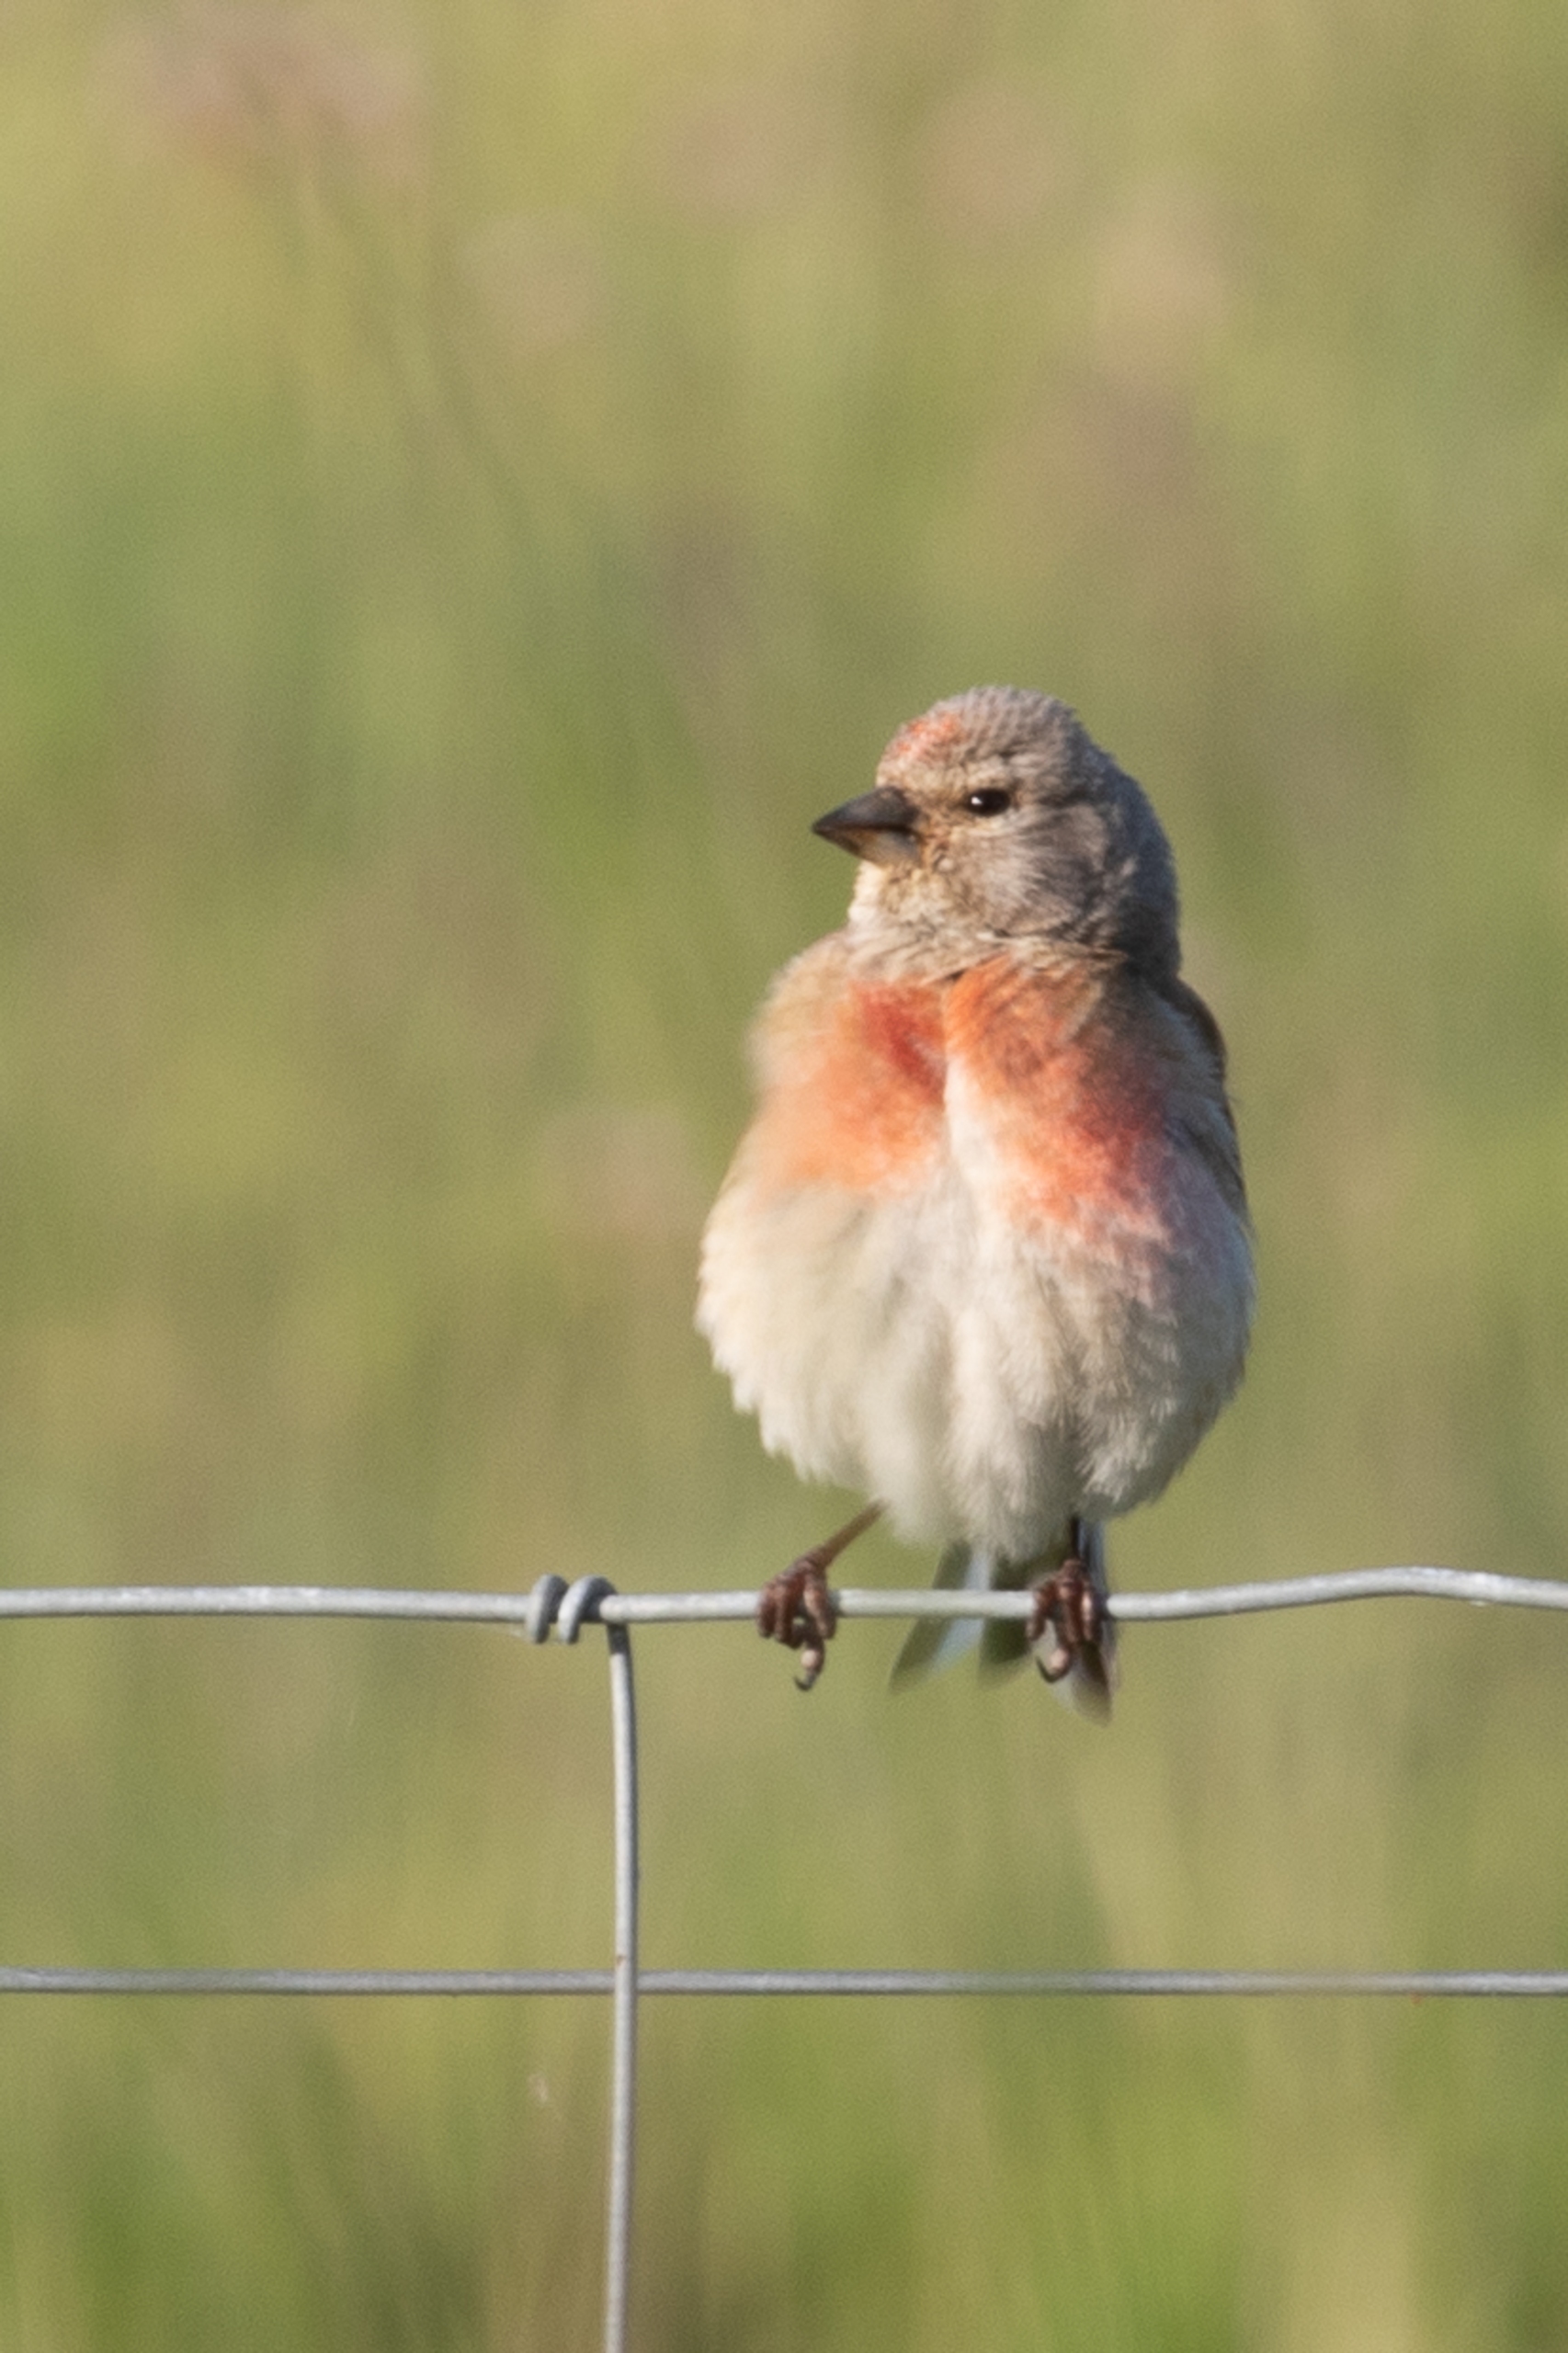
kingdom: Animalia
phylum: Chordata
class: Aves
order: Passeriformes
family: Fringillidae
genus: Linaria
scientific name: Linaria cannabina
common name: Tornirisk
